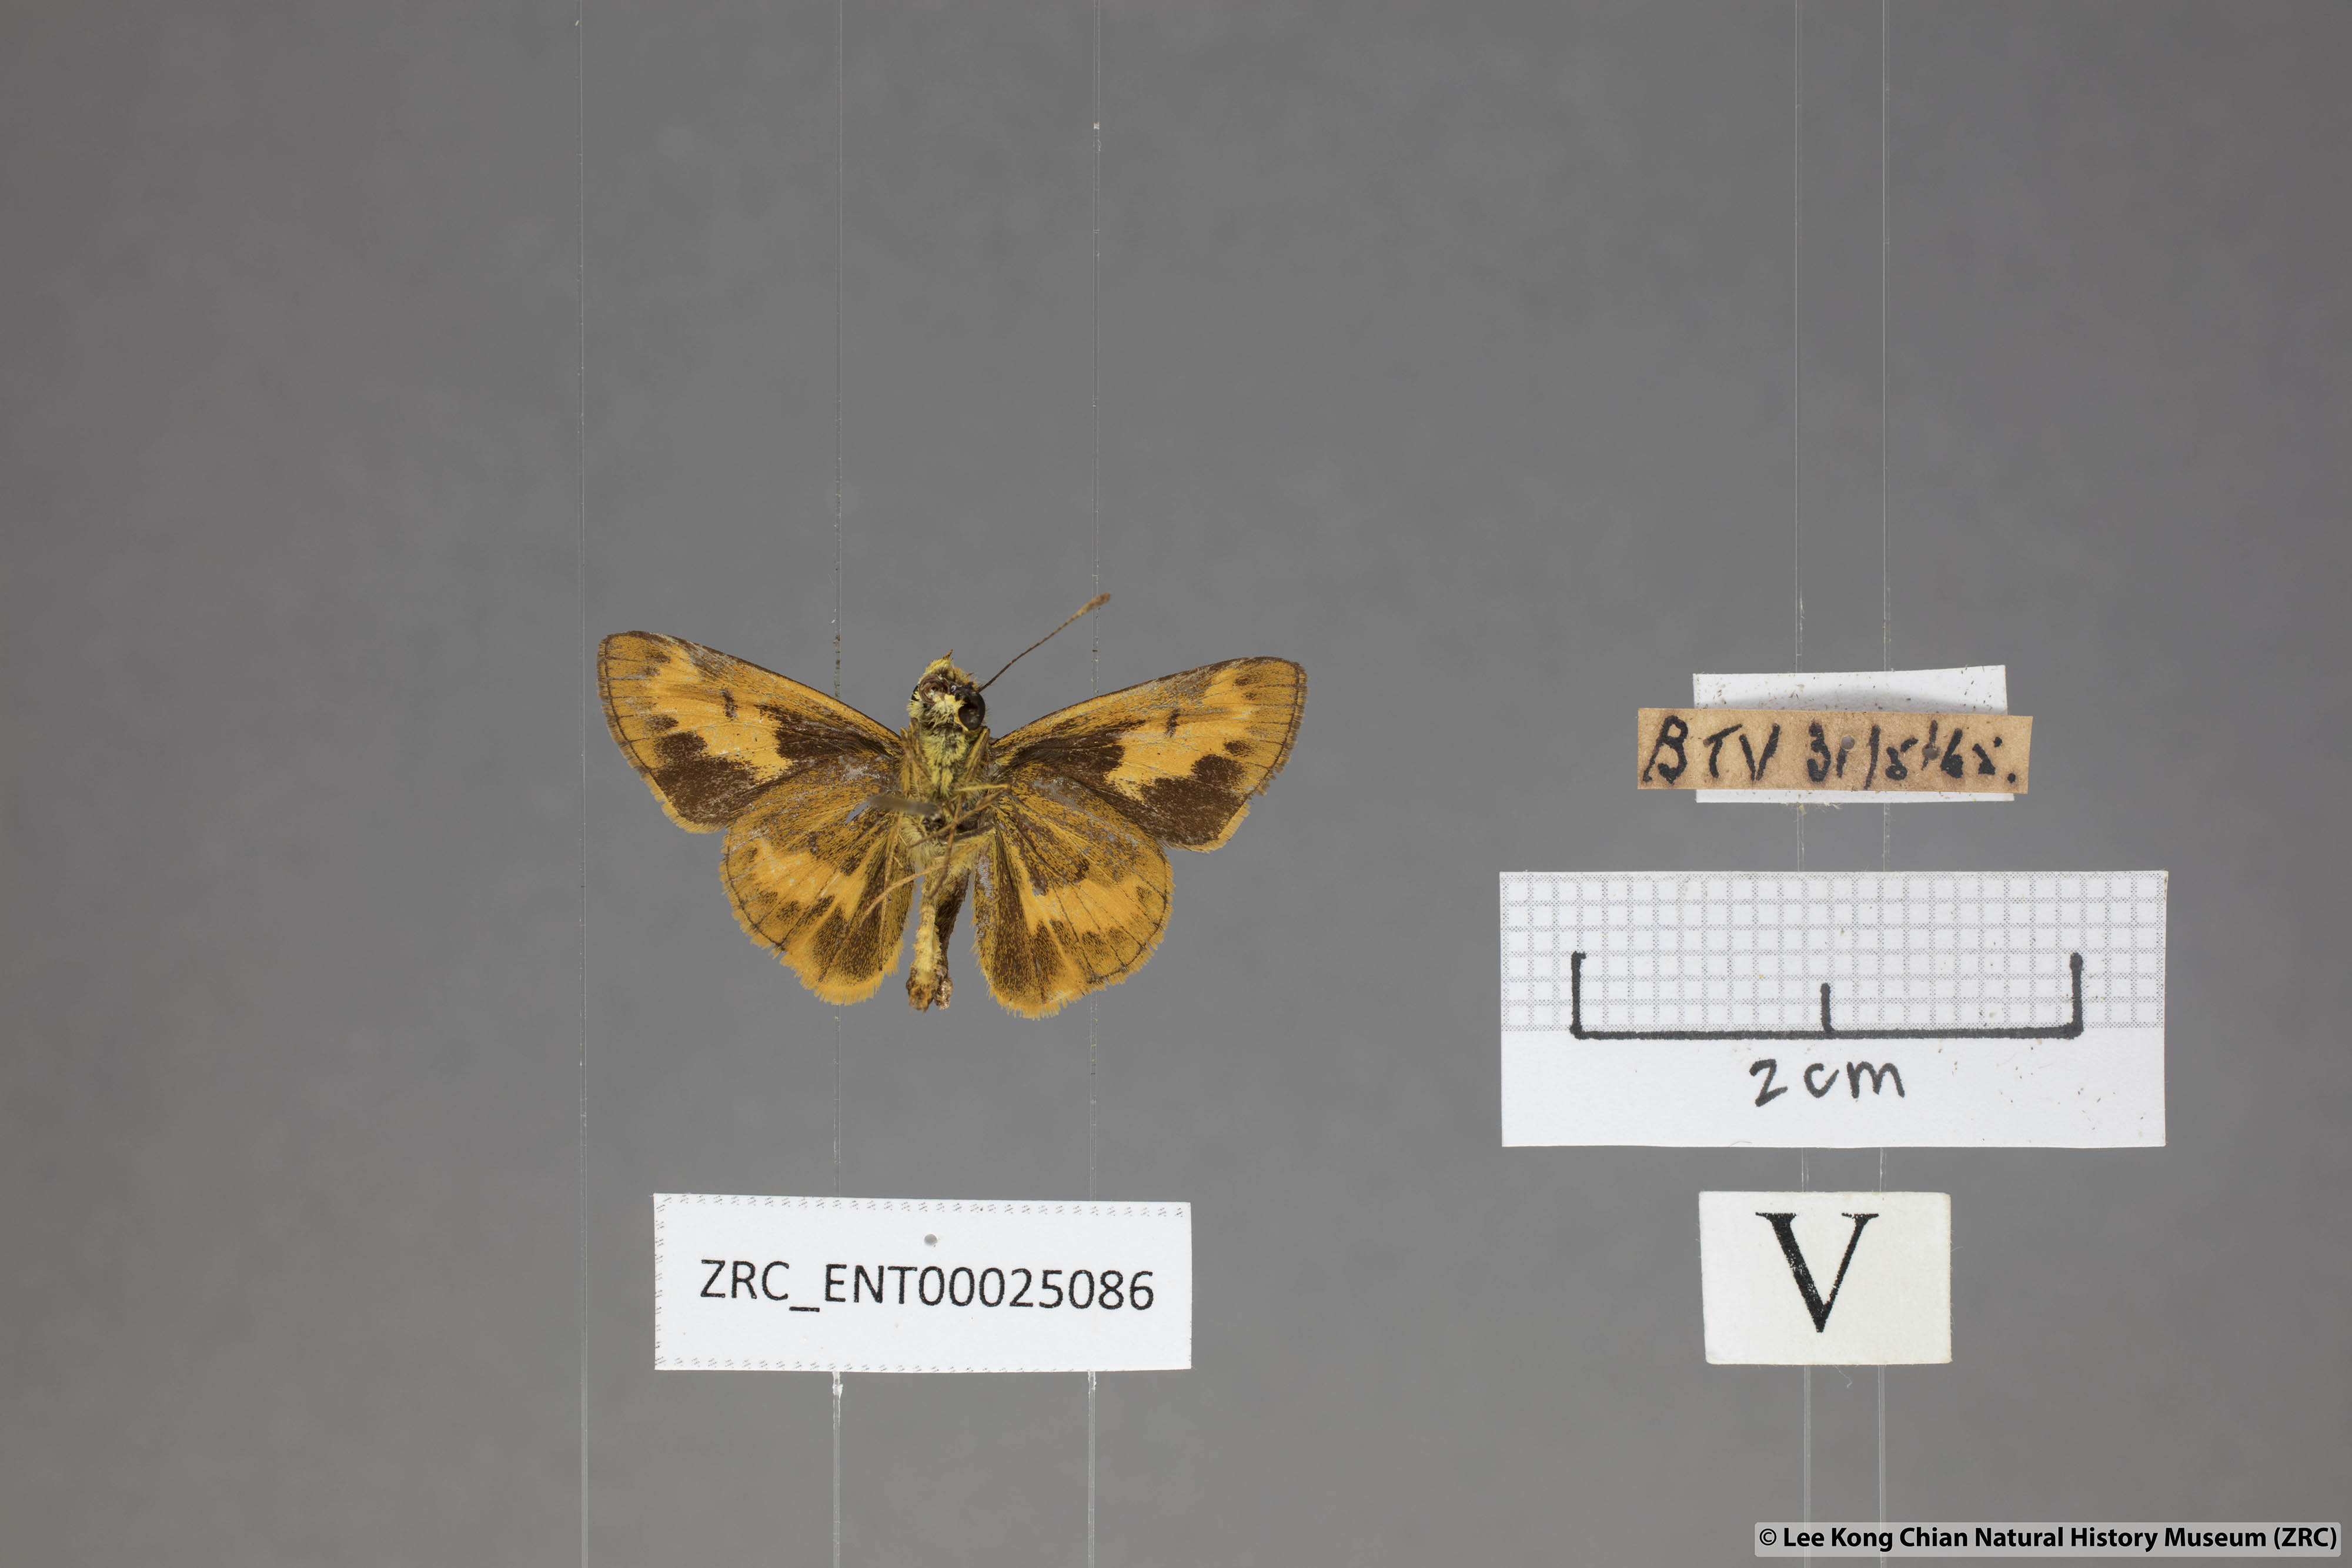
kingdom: Animalia
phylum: Arthropoda
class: Insecta
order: Lepidoptera
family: Hesperiidae
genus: Oriens
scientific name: Oriens gola
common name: Common dartlet
